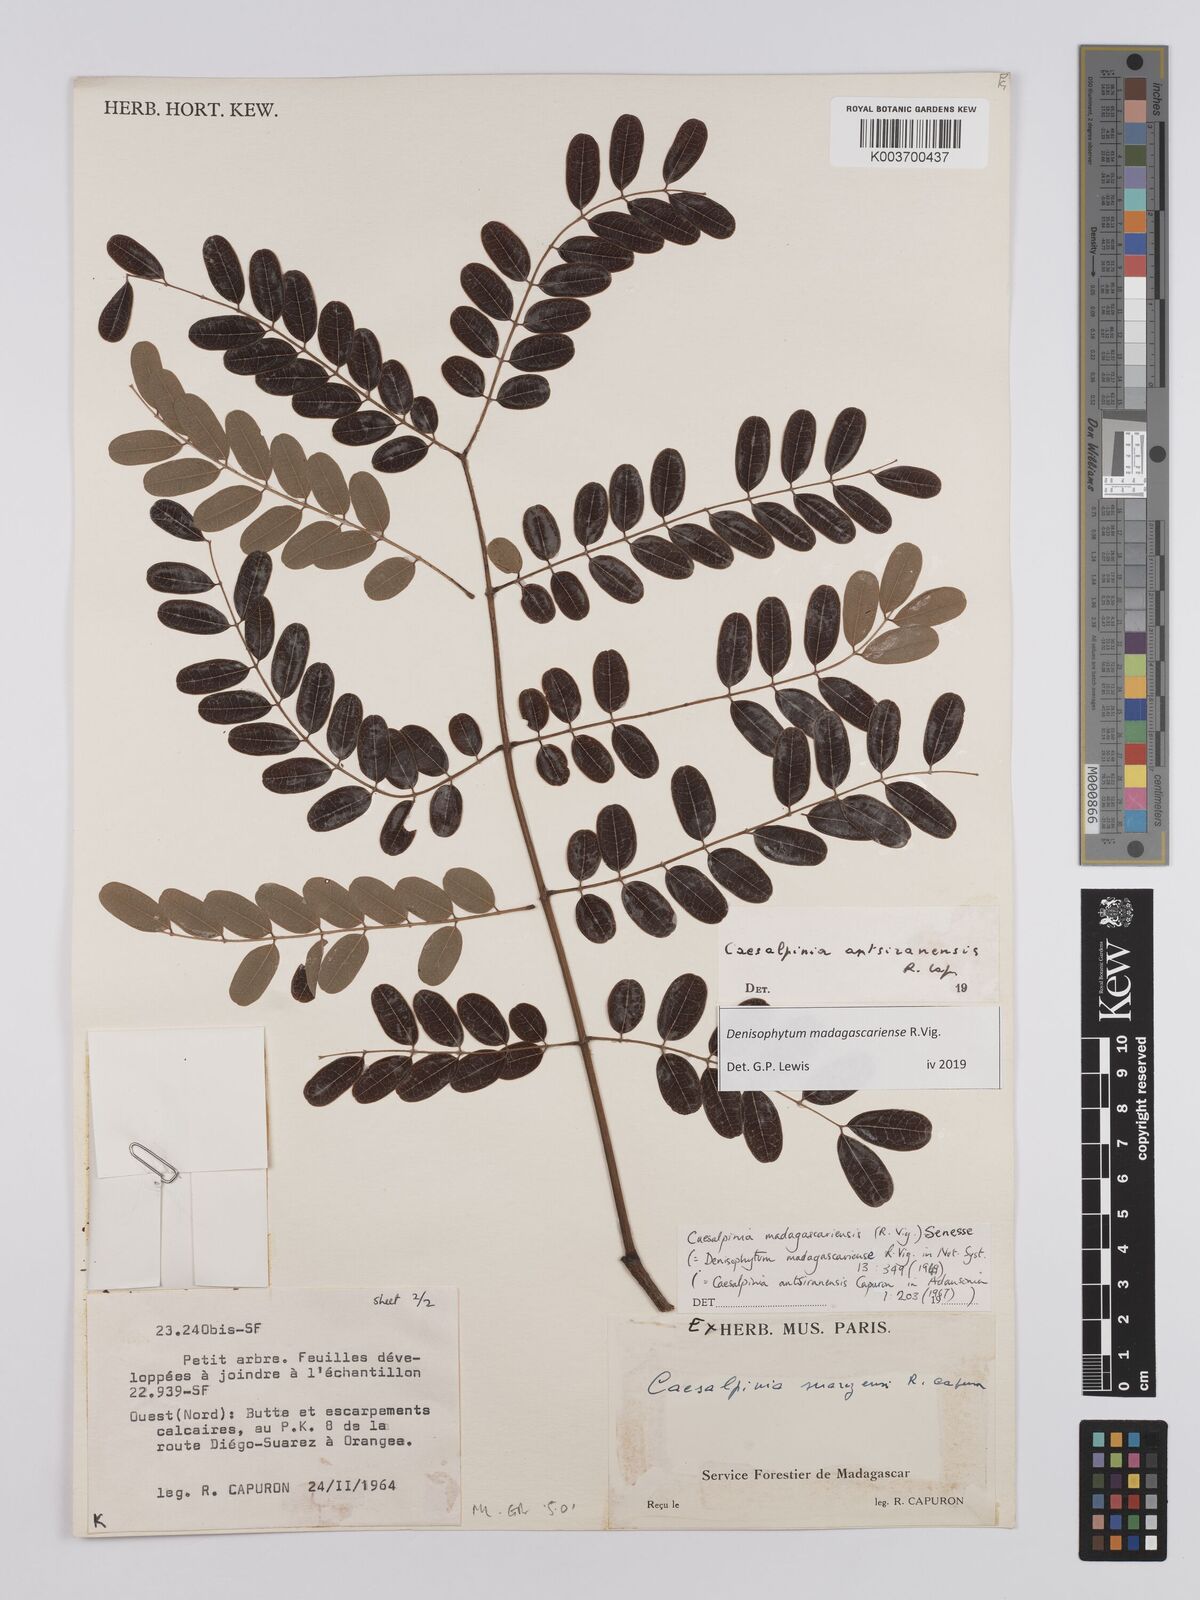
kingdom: Plantae
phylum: Tracheophyta
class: Magnoliopsida
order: Fabales
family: Fabaceae
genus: Denisophytum
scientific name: Denisophytum madagascariense
